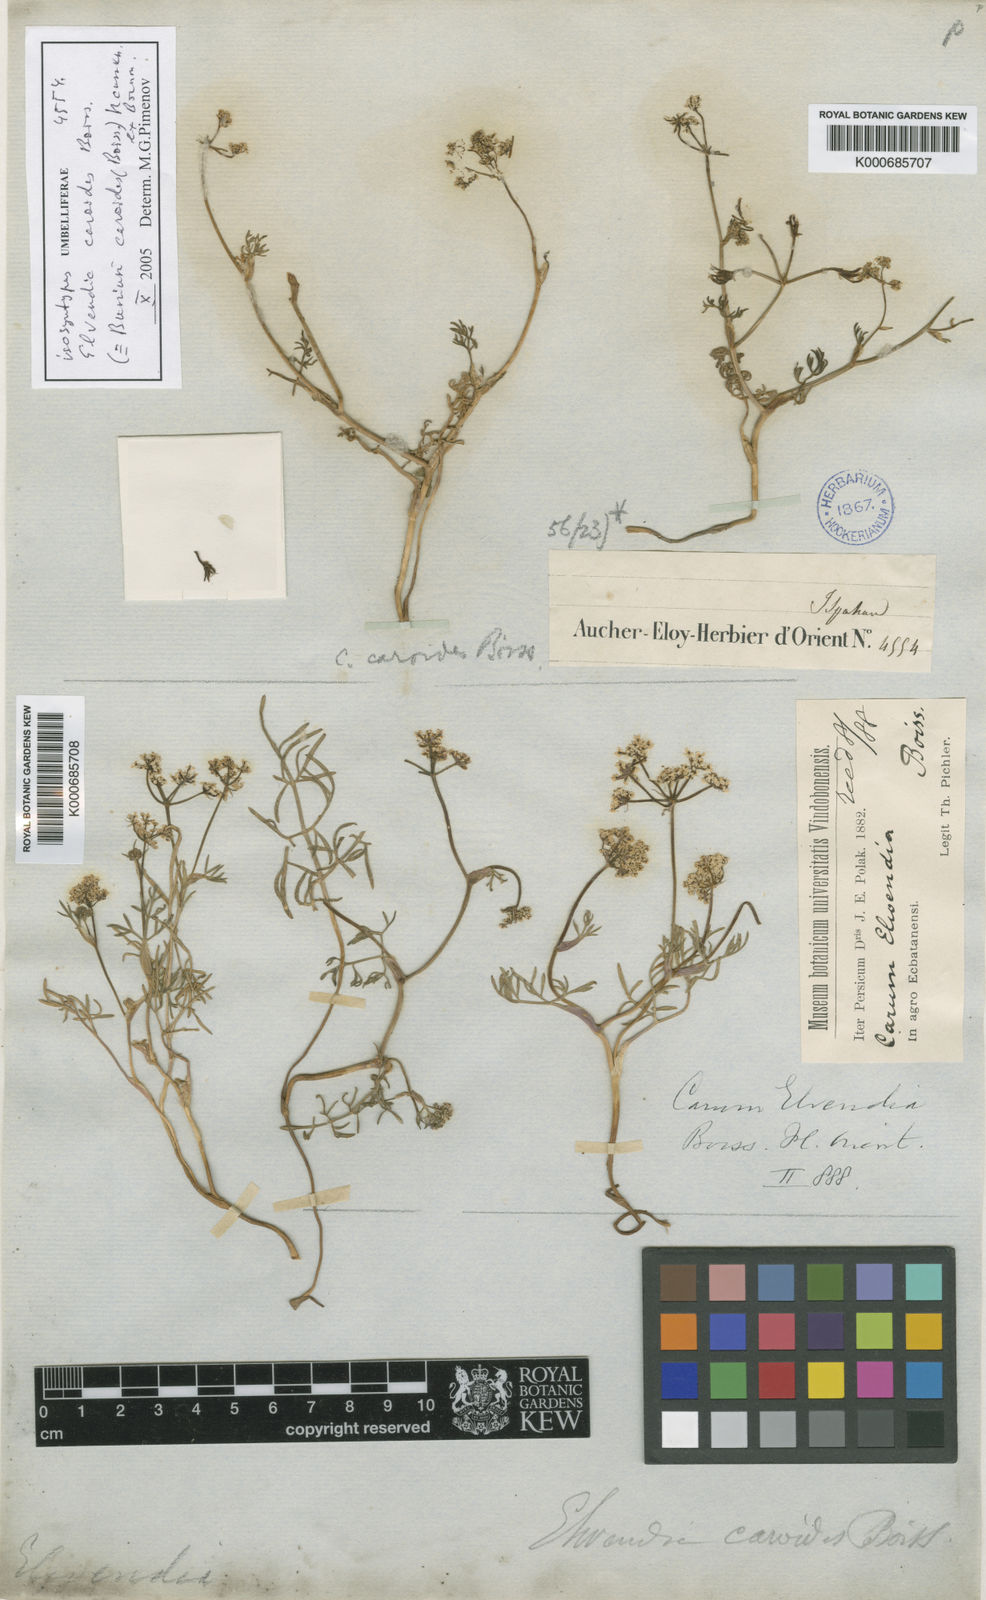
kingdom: Plantae
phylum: Tracheophyta
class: Magnoliopsida
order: Apiales
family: Apiaceae
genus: Elwendia
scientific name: Elwendia caroides
